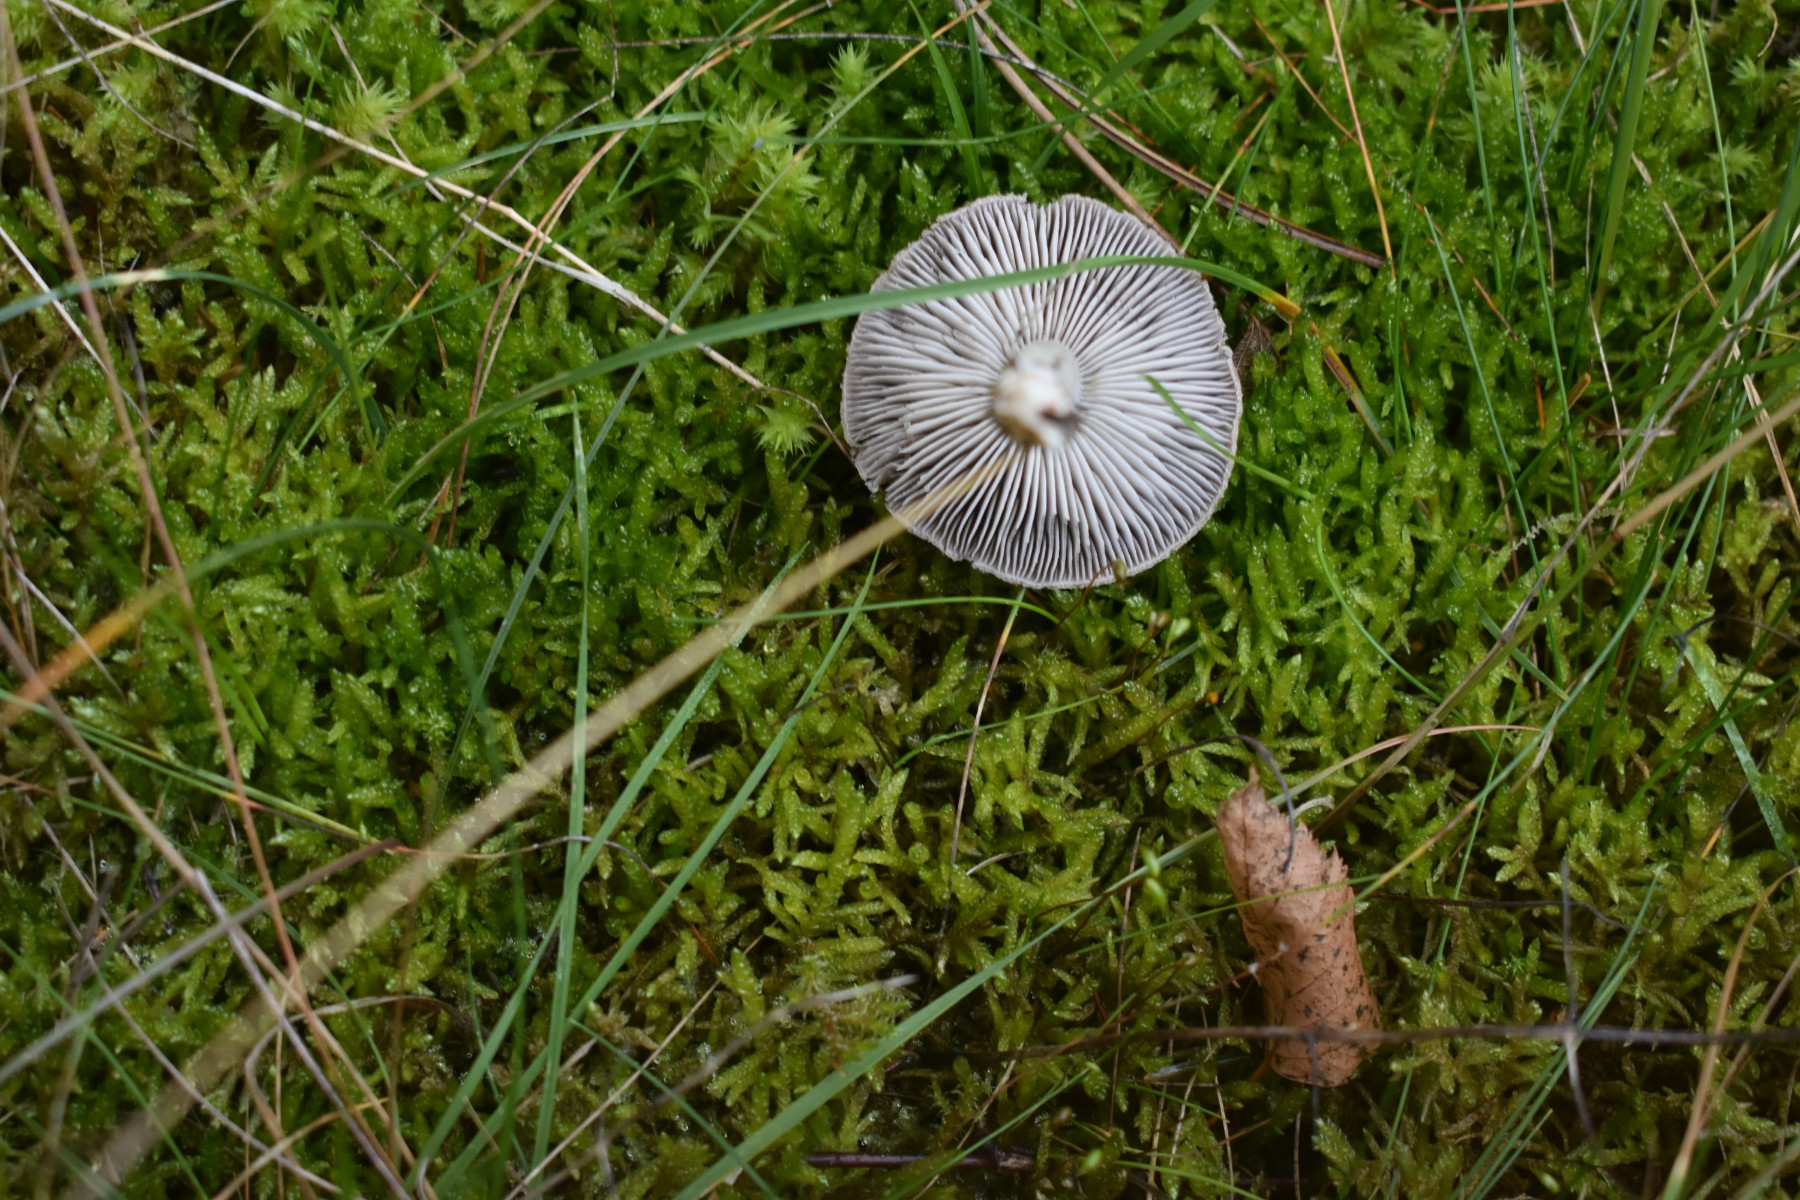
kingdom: Fungi
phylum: Basidiomycota
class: Agaricomycetes
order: Agaricales
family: Tricholomataceae
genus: Tricholoma
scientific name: Tricholoma
